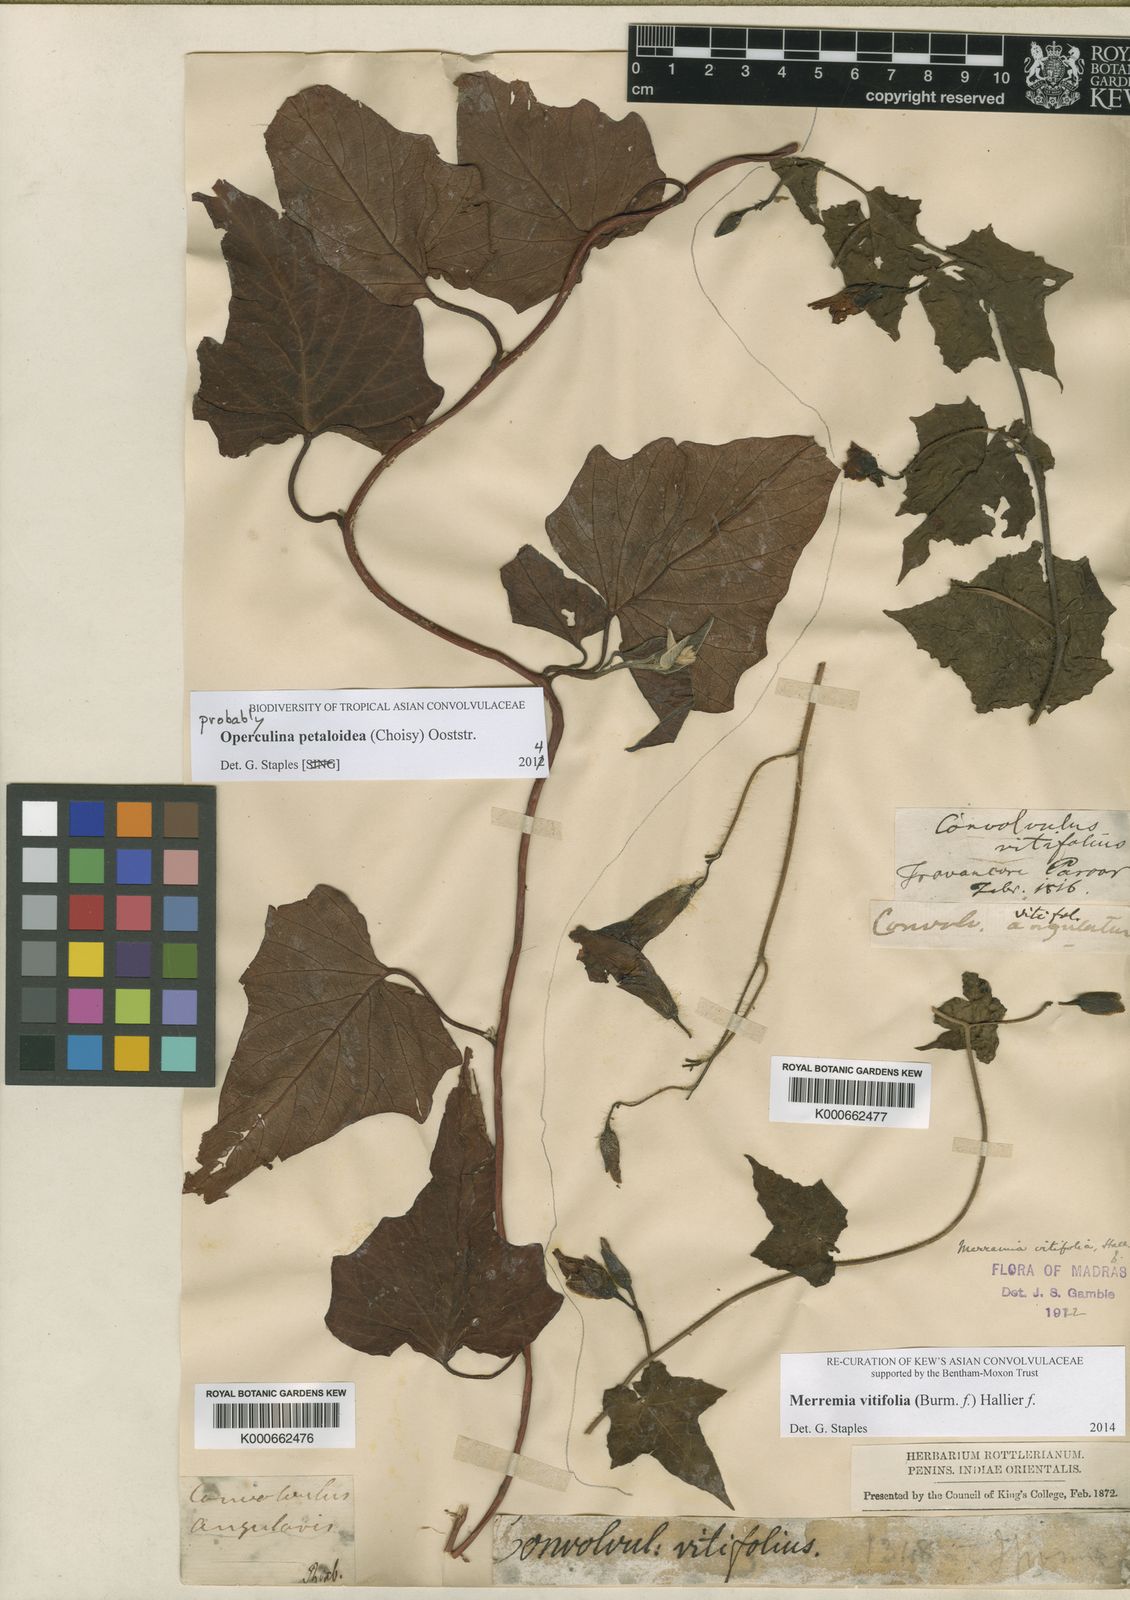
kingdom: Plantae
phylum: Tracheophyta
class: Magnoliopsida
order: Solanales
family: Convolvulaceae
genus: Camonea
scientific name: Camonea vitifolia
